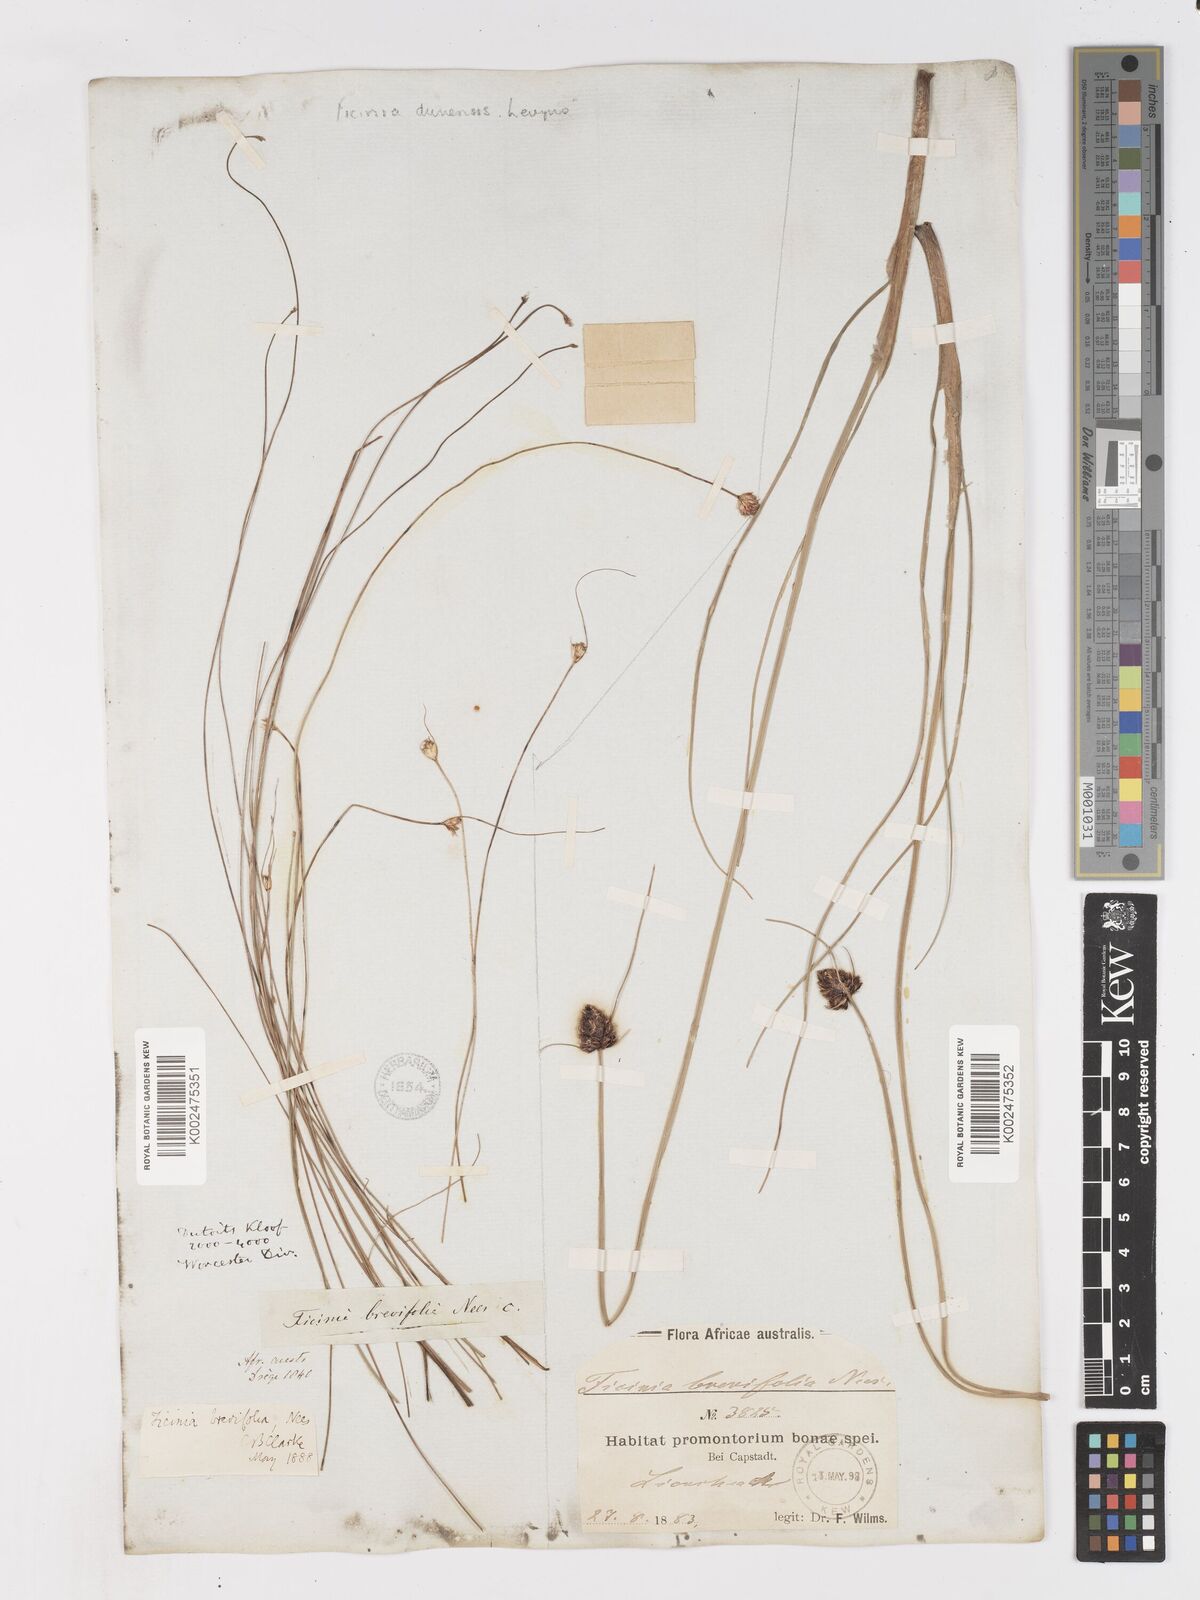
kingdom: Plantae
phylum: Tracheophyta
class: Liliopsida
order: Poales
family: Cyperaceae
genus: Ficinia
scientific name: Ficinia brevifolia
